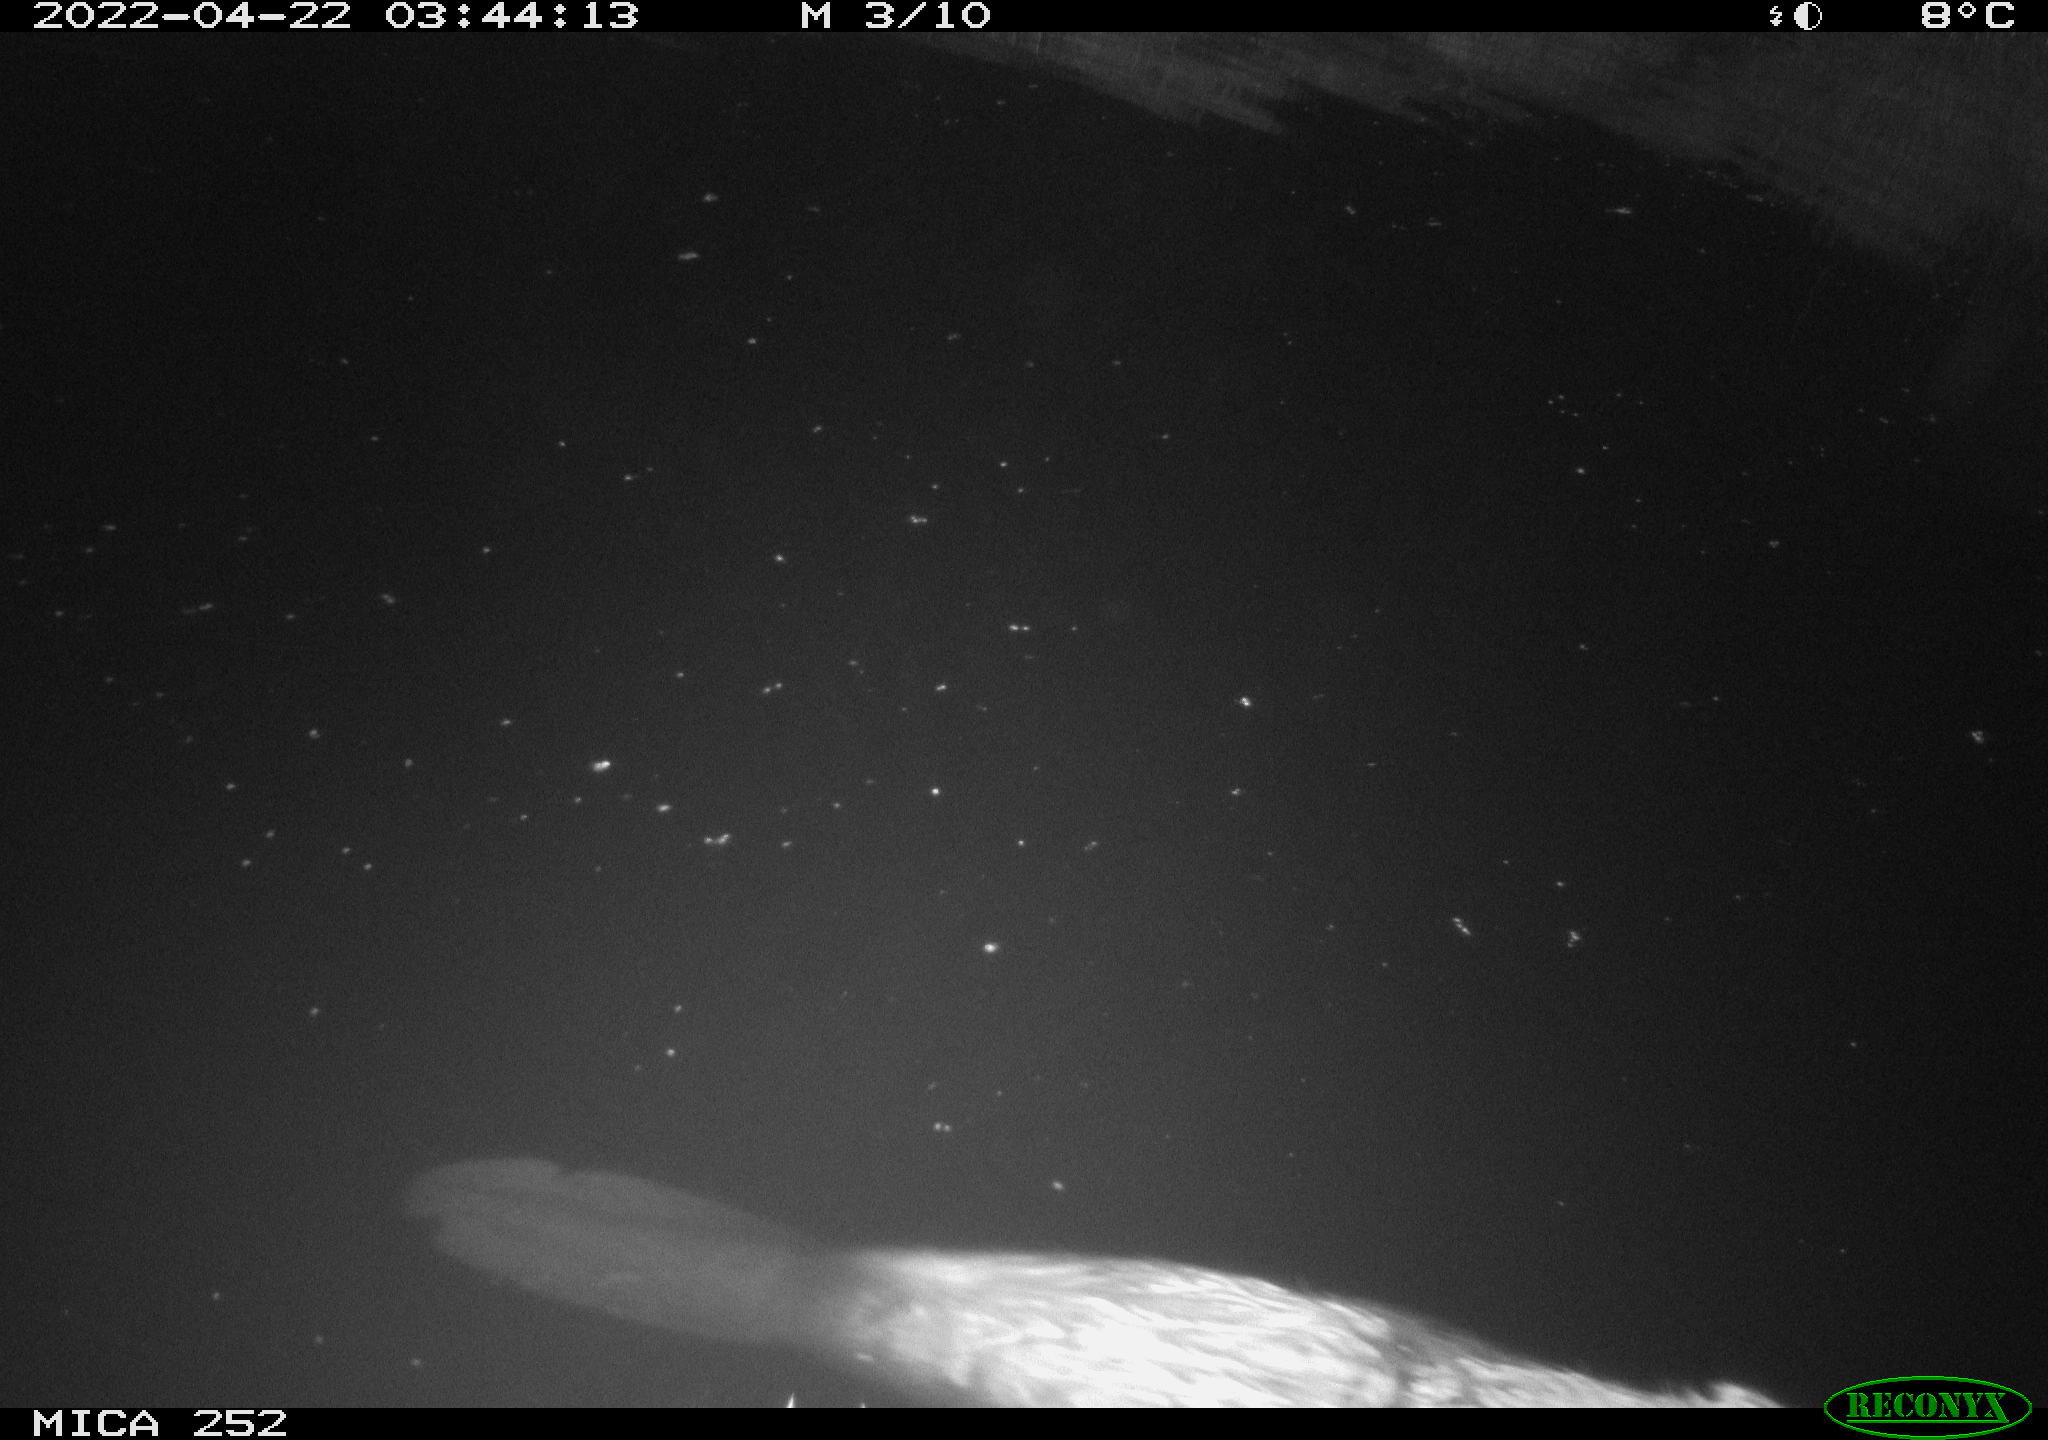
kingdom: Animalia
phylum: Chordata
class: Mammalia
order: Rodentia
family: Castoridae
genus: Castor
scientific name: Castor fiber
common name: Eurasian beaver
